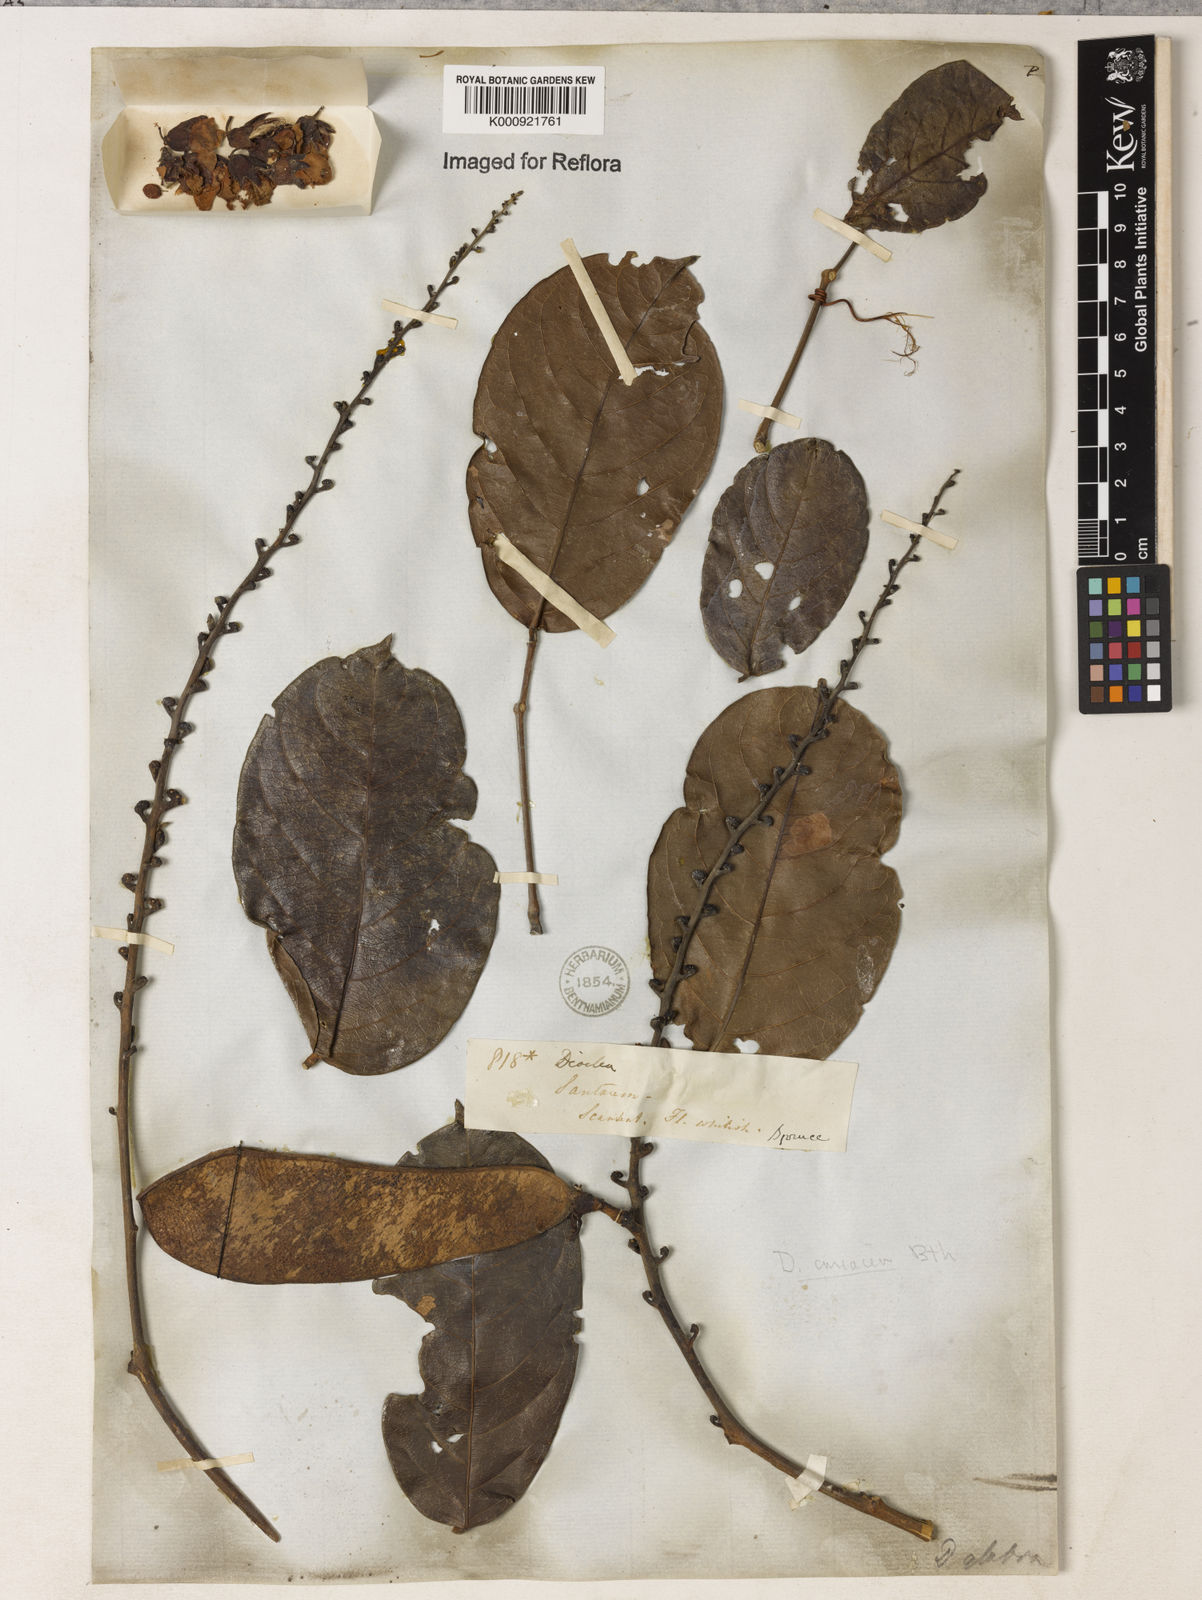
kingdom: Plantae
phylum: Tracheophyta
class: Magnoliopsida
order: Fabales
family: Fabaceae
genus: Macropsychanthus
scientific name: Macropsychanthus glaber
